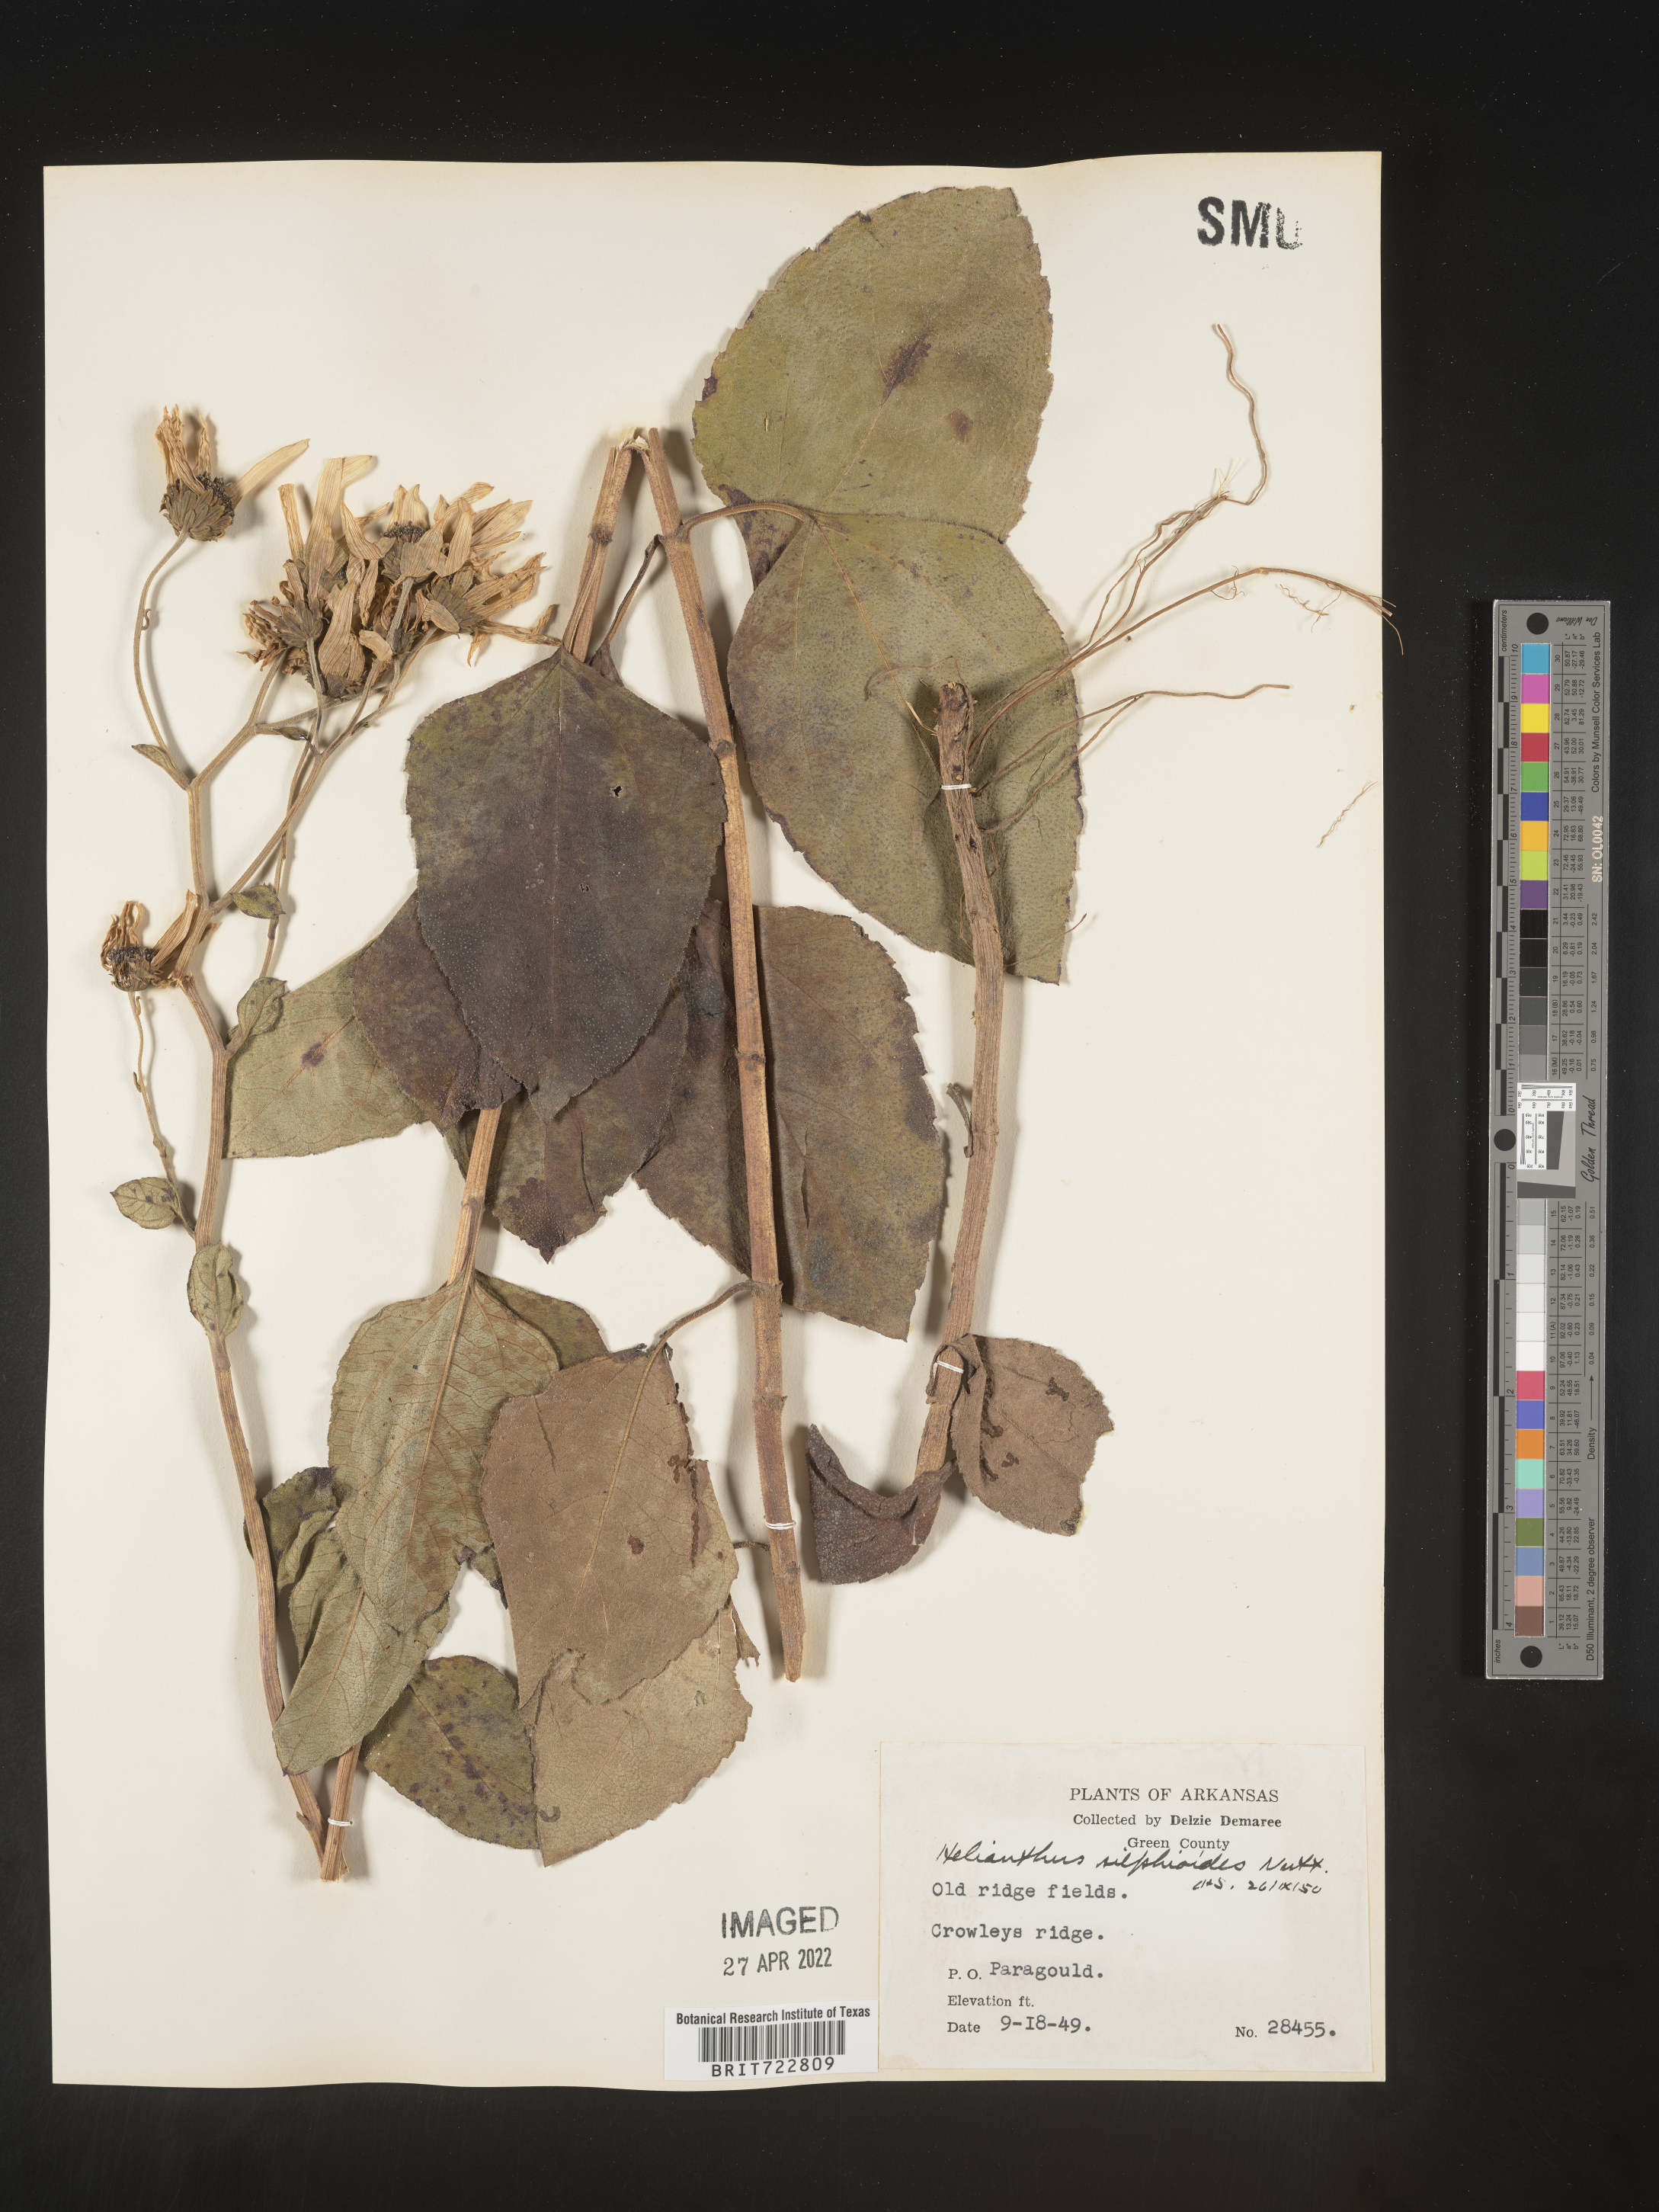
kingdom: Plantae
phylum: Tracheophyta
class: Magnoliopsida
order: Asterales
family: Asteraceae
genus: Helianthus
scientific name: Helianthus silphioides
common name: Odorous sunflower
